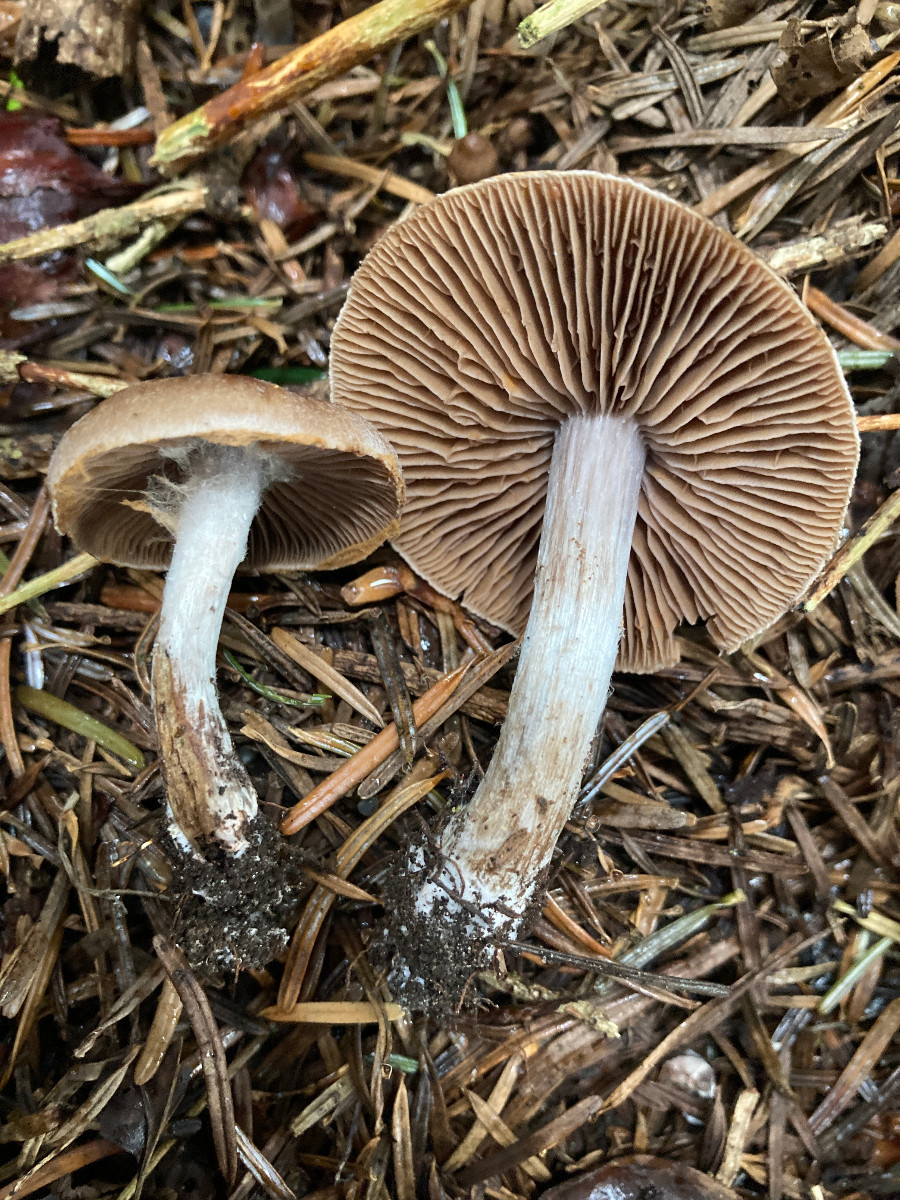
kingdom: Fungi
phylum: Basidiomycota
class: Agaricomycetes
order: Agaricales
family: Cortinariaceae
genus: Cortinarius
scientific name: Cortinarius
